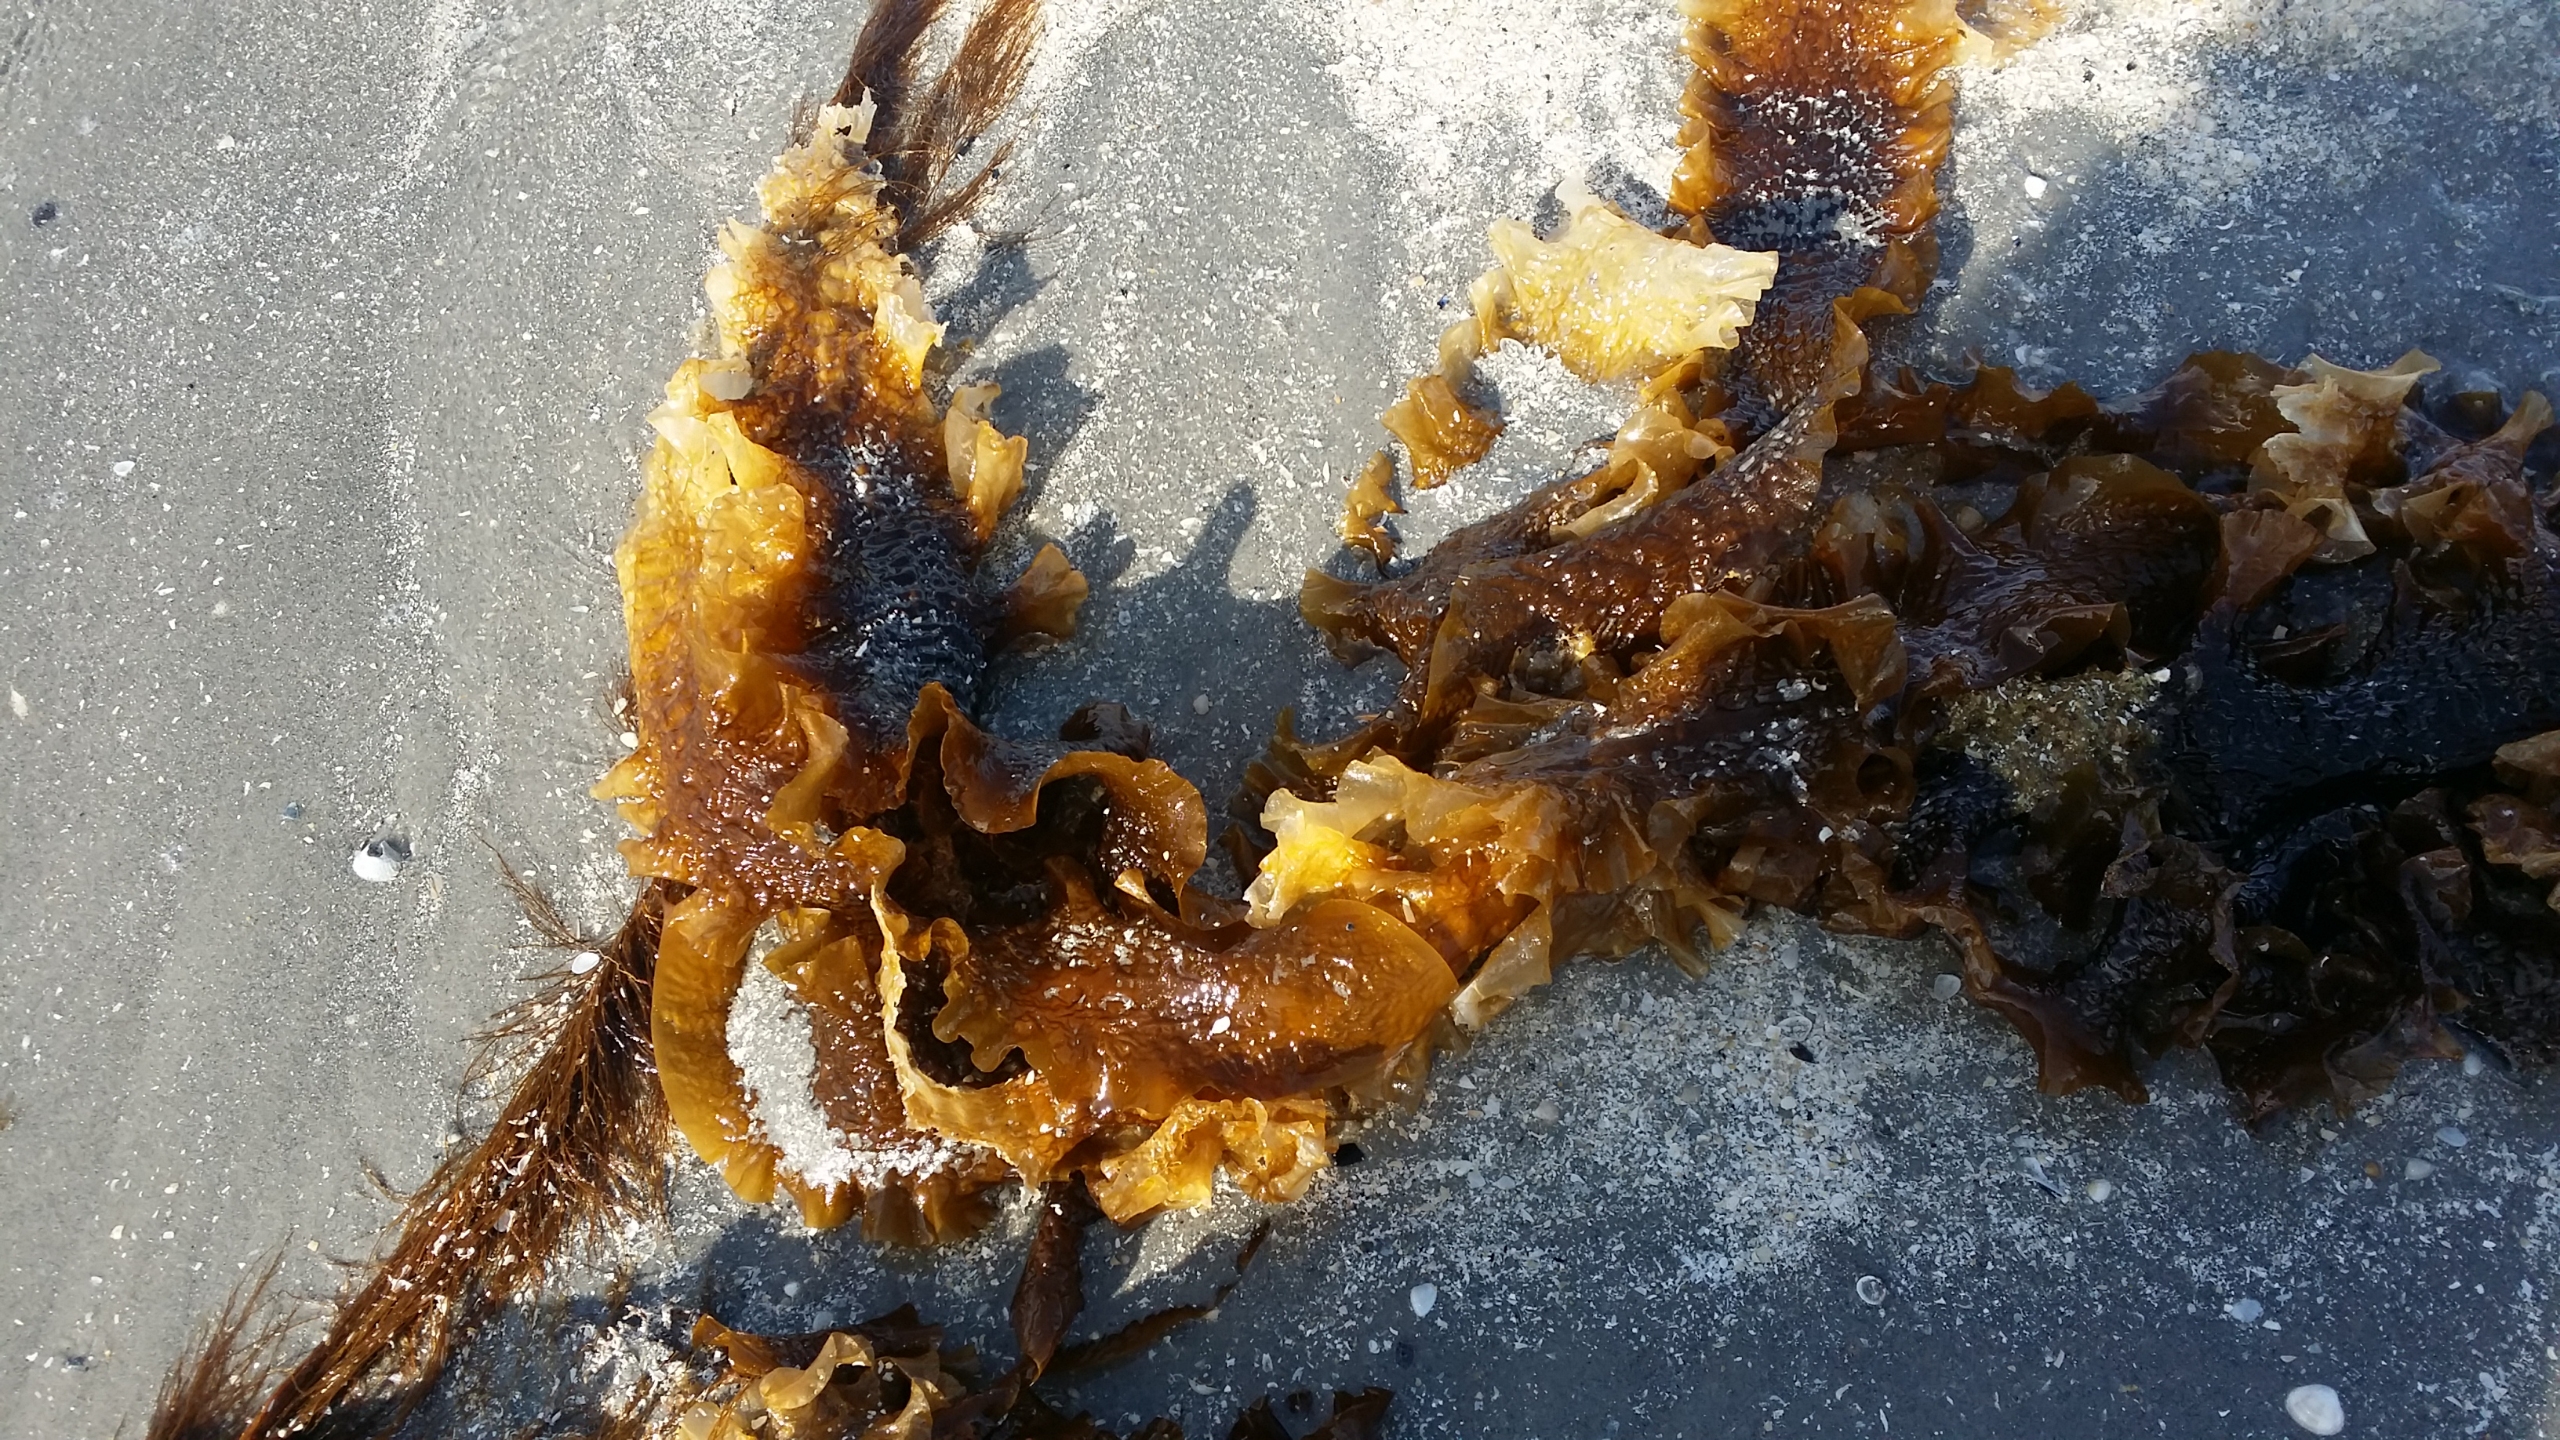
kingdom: Chromista
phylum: Ochrophyta
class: Phaeophyceae
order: Laminariales
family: Laminariaceae
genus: Saccharina
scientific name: Saccharina latissima
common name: Sukkertang
